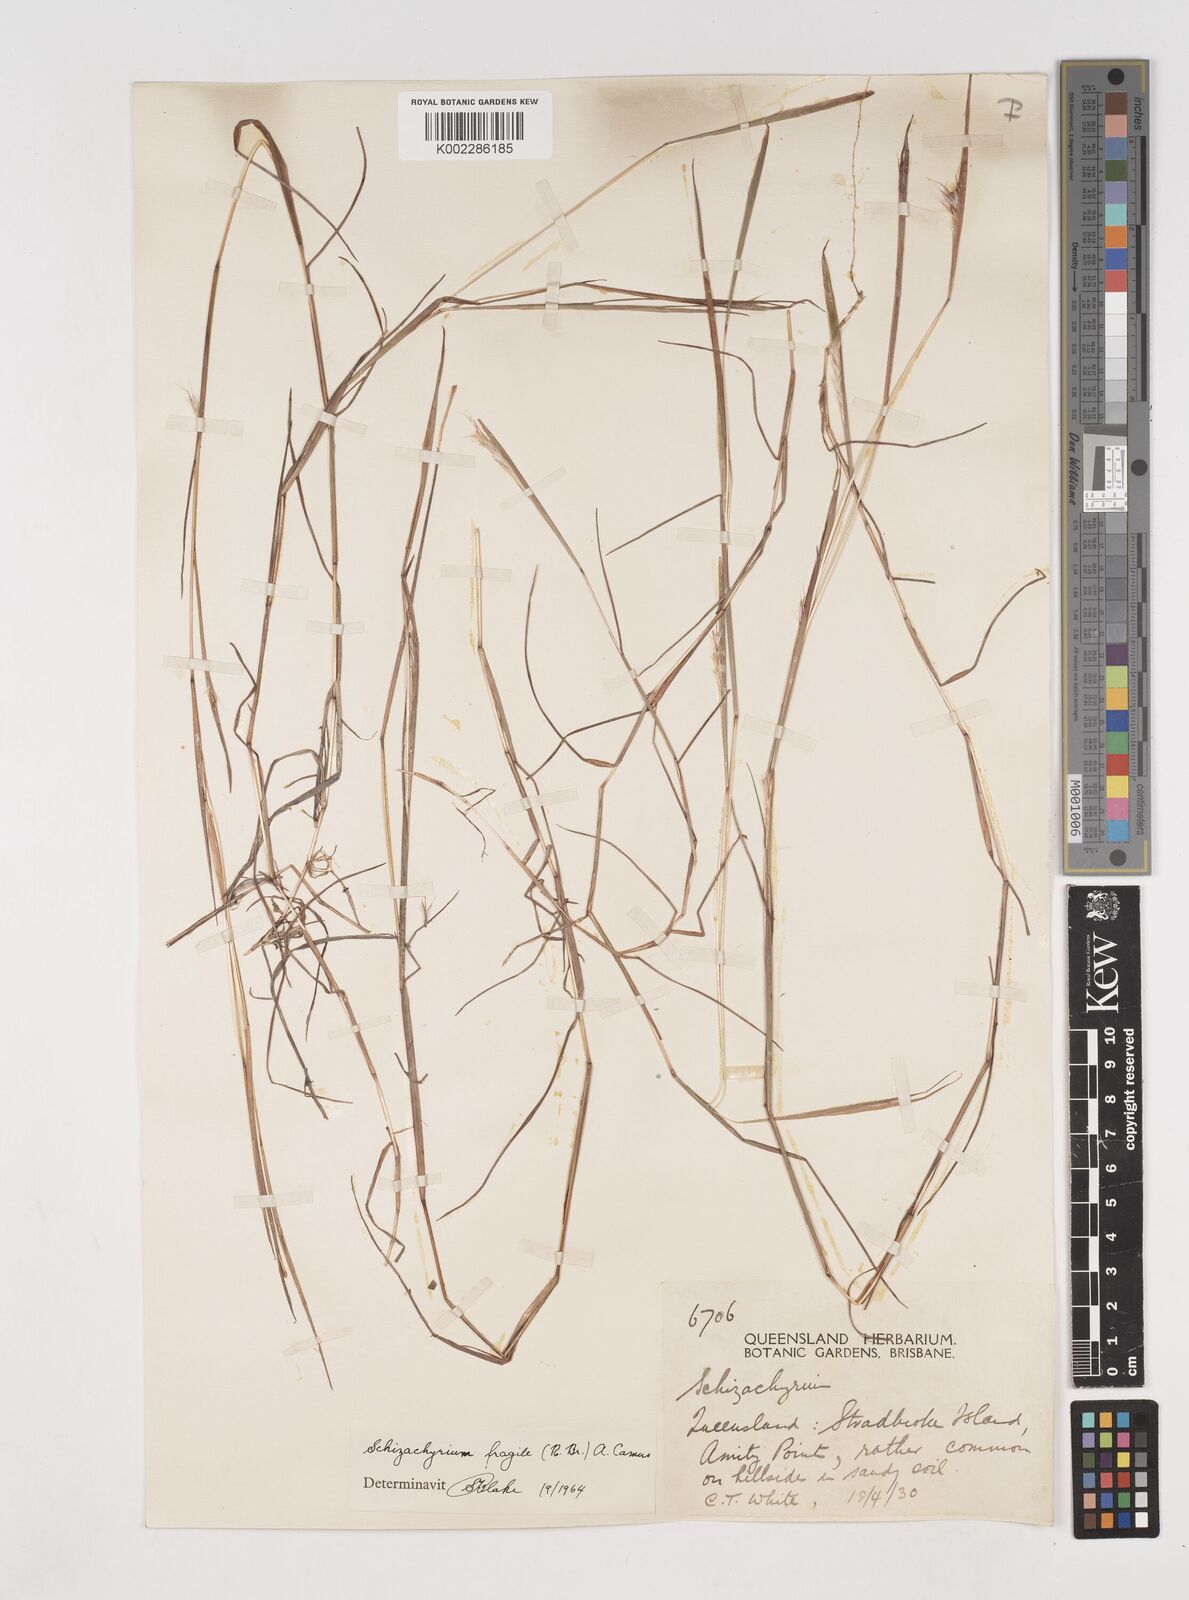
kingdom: Plantae
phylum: Tracheophyta
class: Liliopsida
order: Poales
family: Poaceae
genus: Schizachyrium
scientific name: Schizachyrium fragile
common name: Red spathe grass
